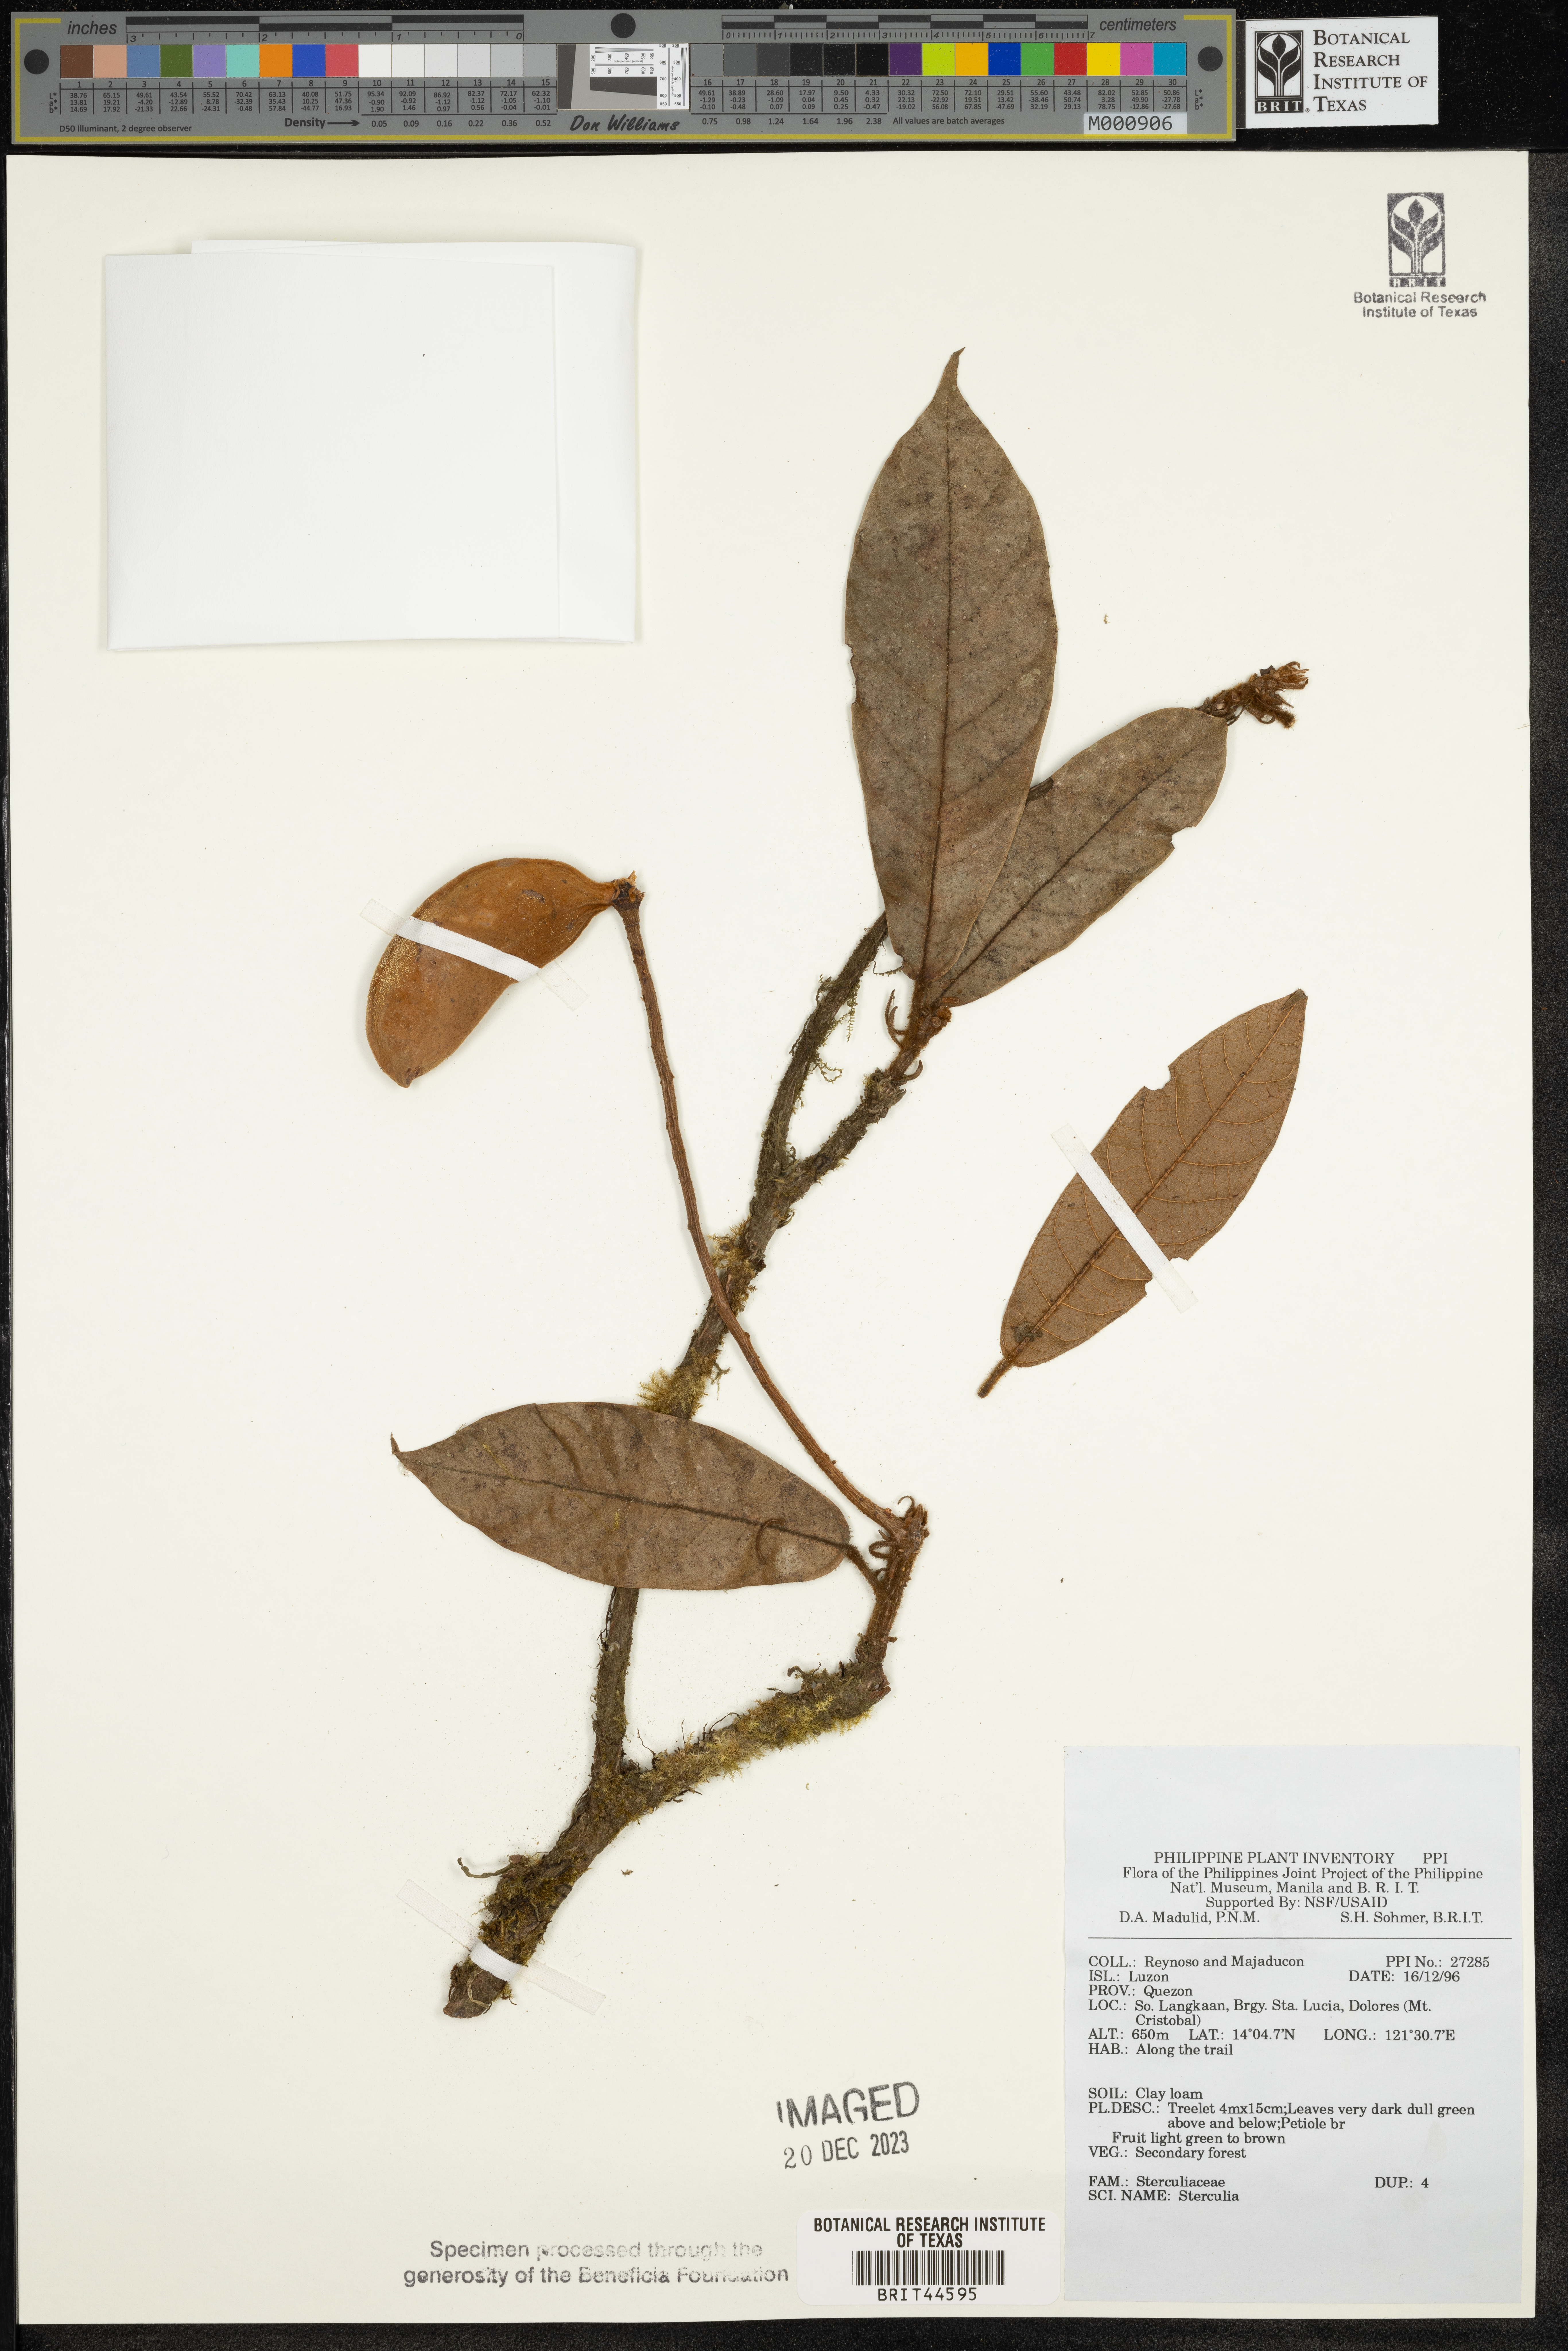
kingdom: Plantae
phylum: Tracheophyta
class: Magnoliopsida
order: Malvales
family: Malvaceae
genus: Sterculia
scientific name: Sterculia
